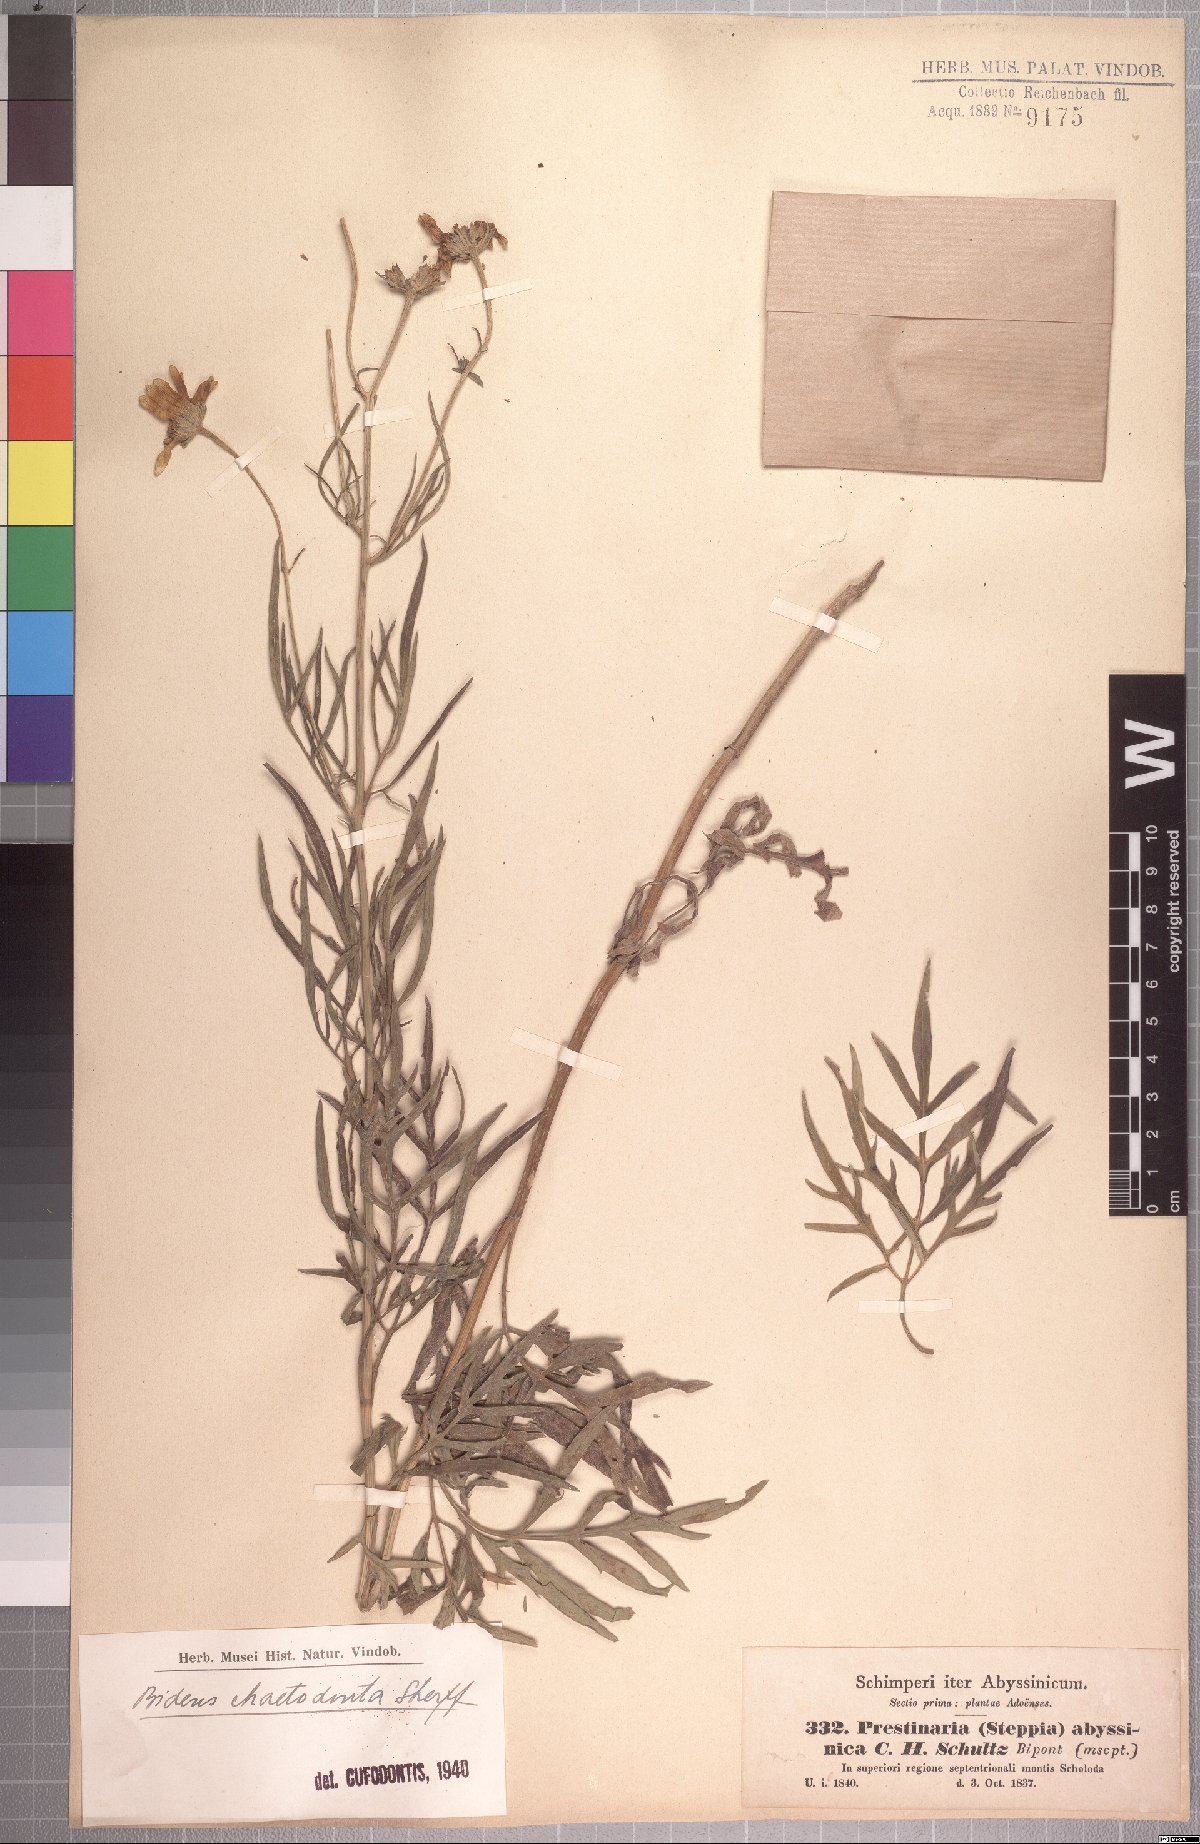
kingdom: Plantae
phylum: Tracheophyta
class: Magnoliopsida
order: Asterales
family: Asteraceae
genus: Bidens
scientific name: Bidens camporum
